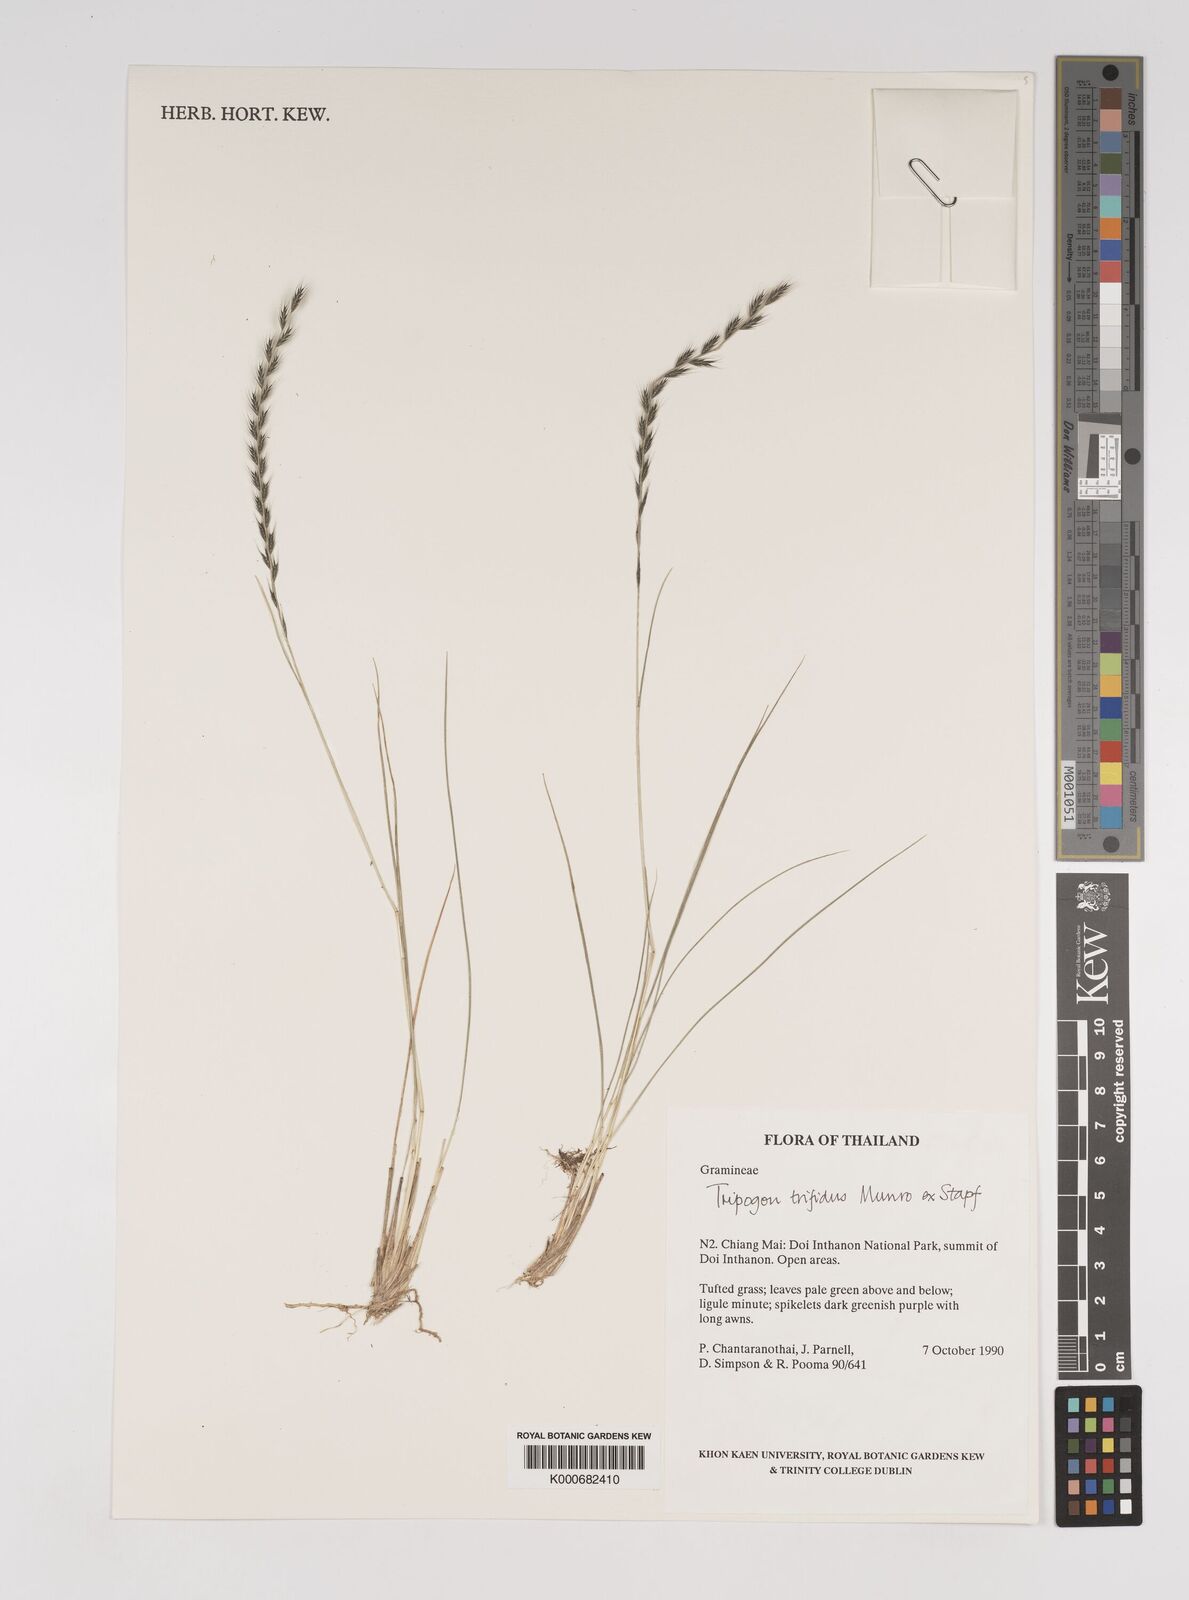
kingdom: Plantae
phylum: Tracheophyta
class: Liliopsida
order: Poales
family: Poaceae
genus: Tripogon
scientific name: Tripogon trifidus
